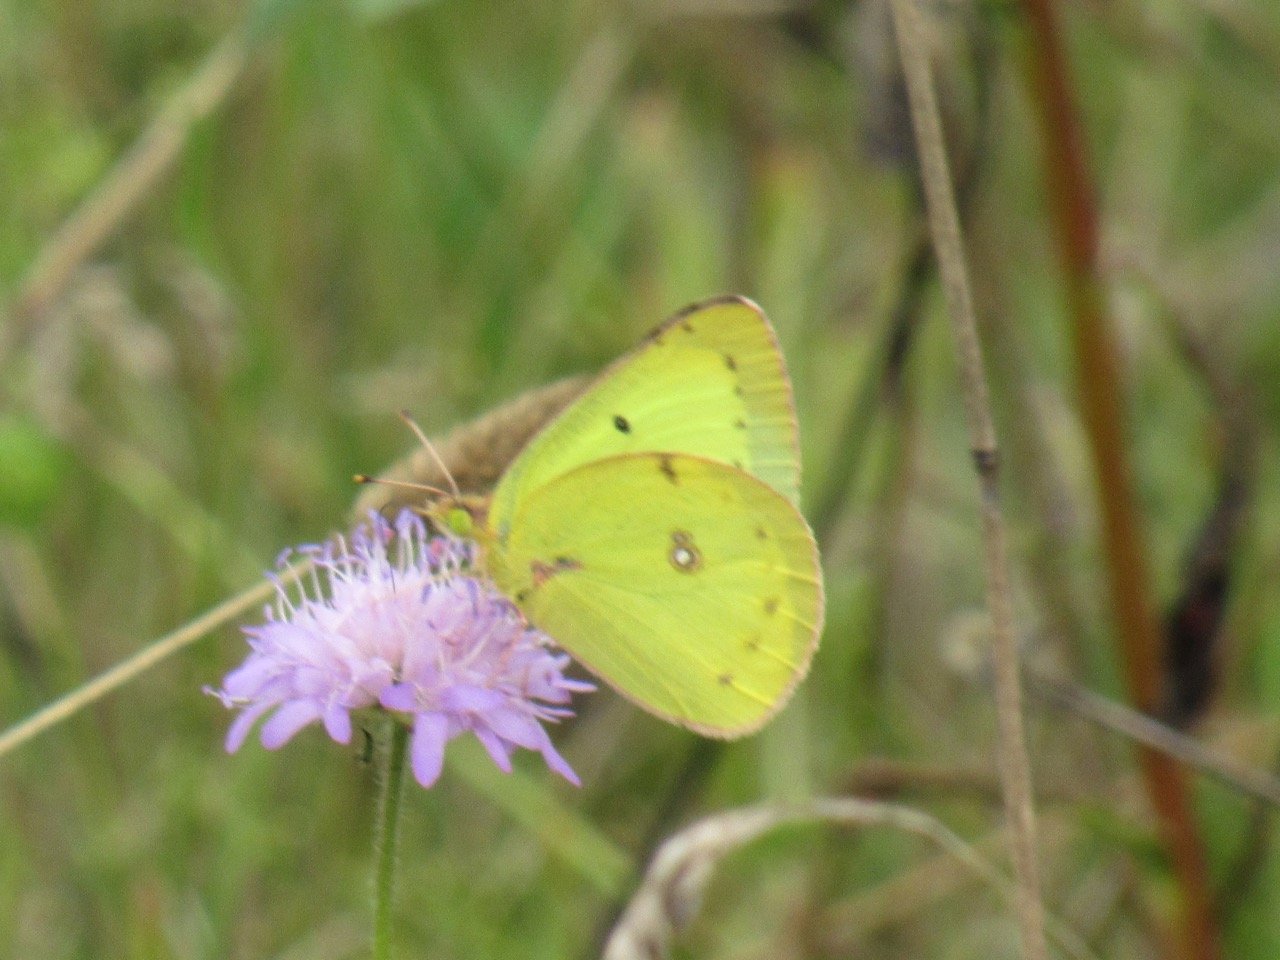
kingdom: Animalia
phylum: Arthropoda
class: Insecta
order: Lepidoptera
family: Pieridae
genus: Colias
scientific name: Colias philodice
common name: Clouded Sulphur
